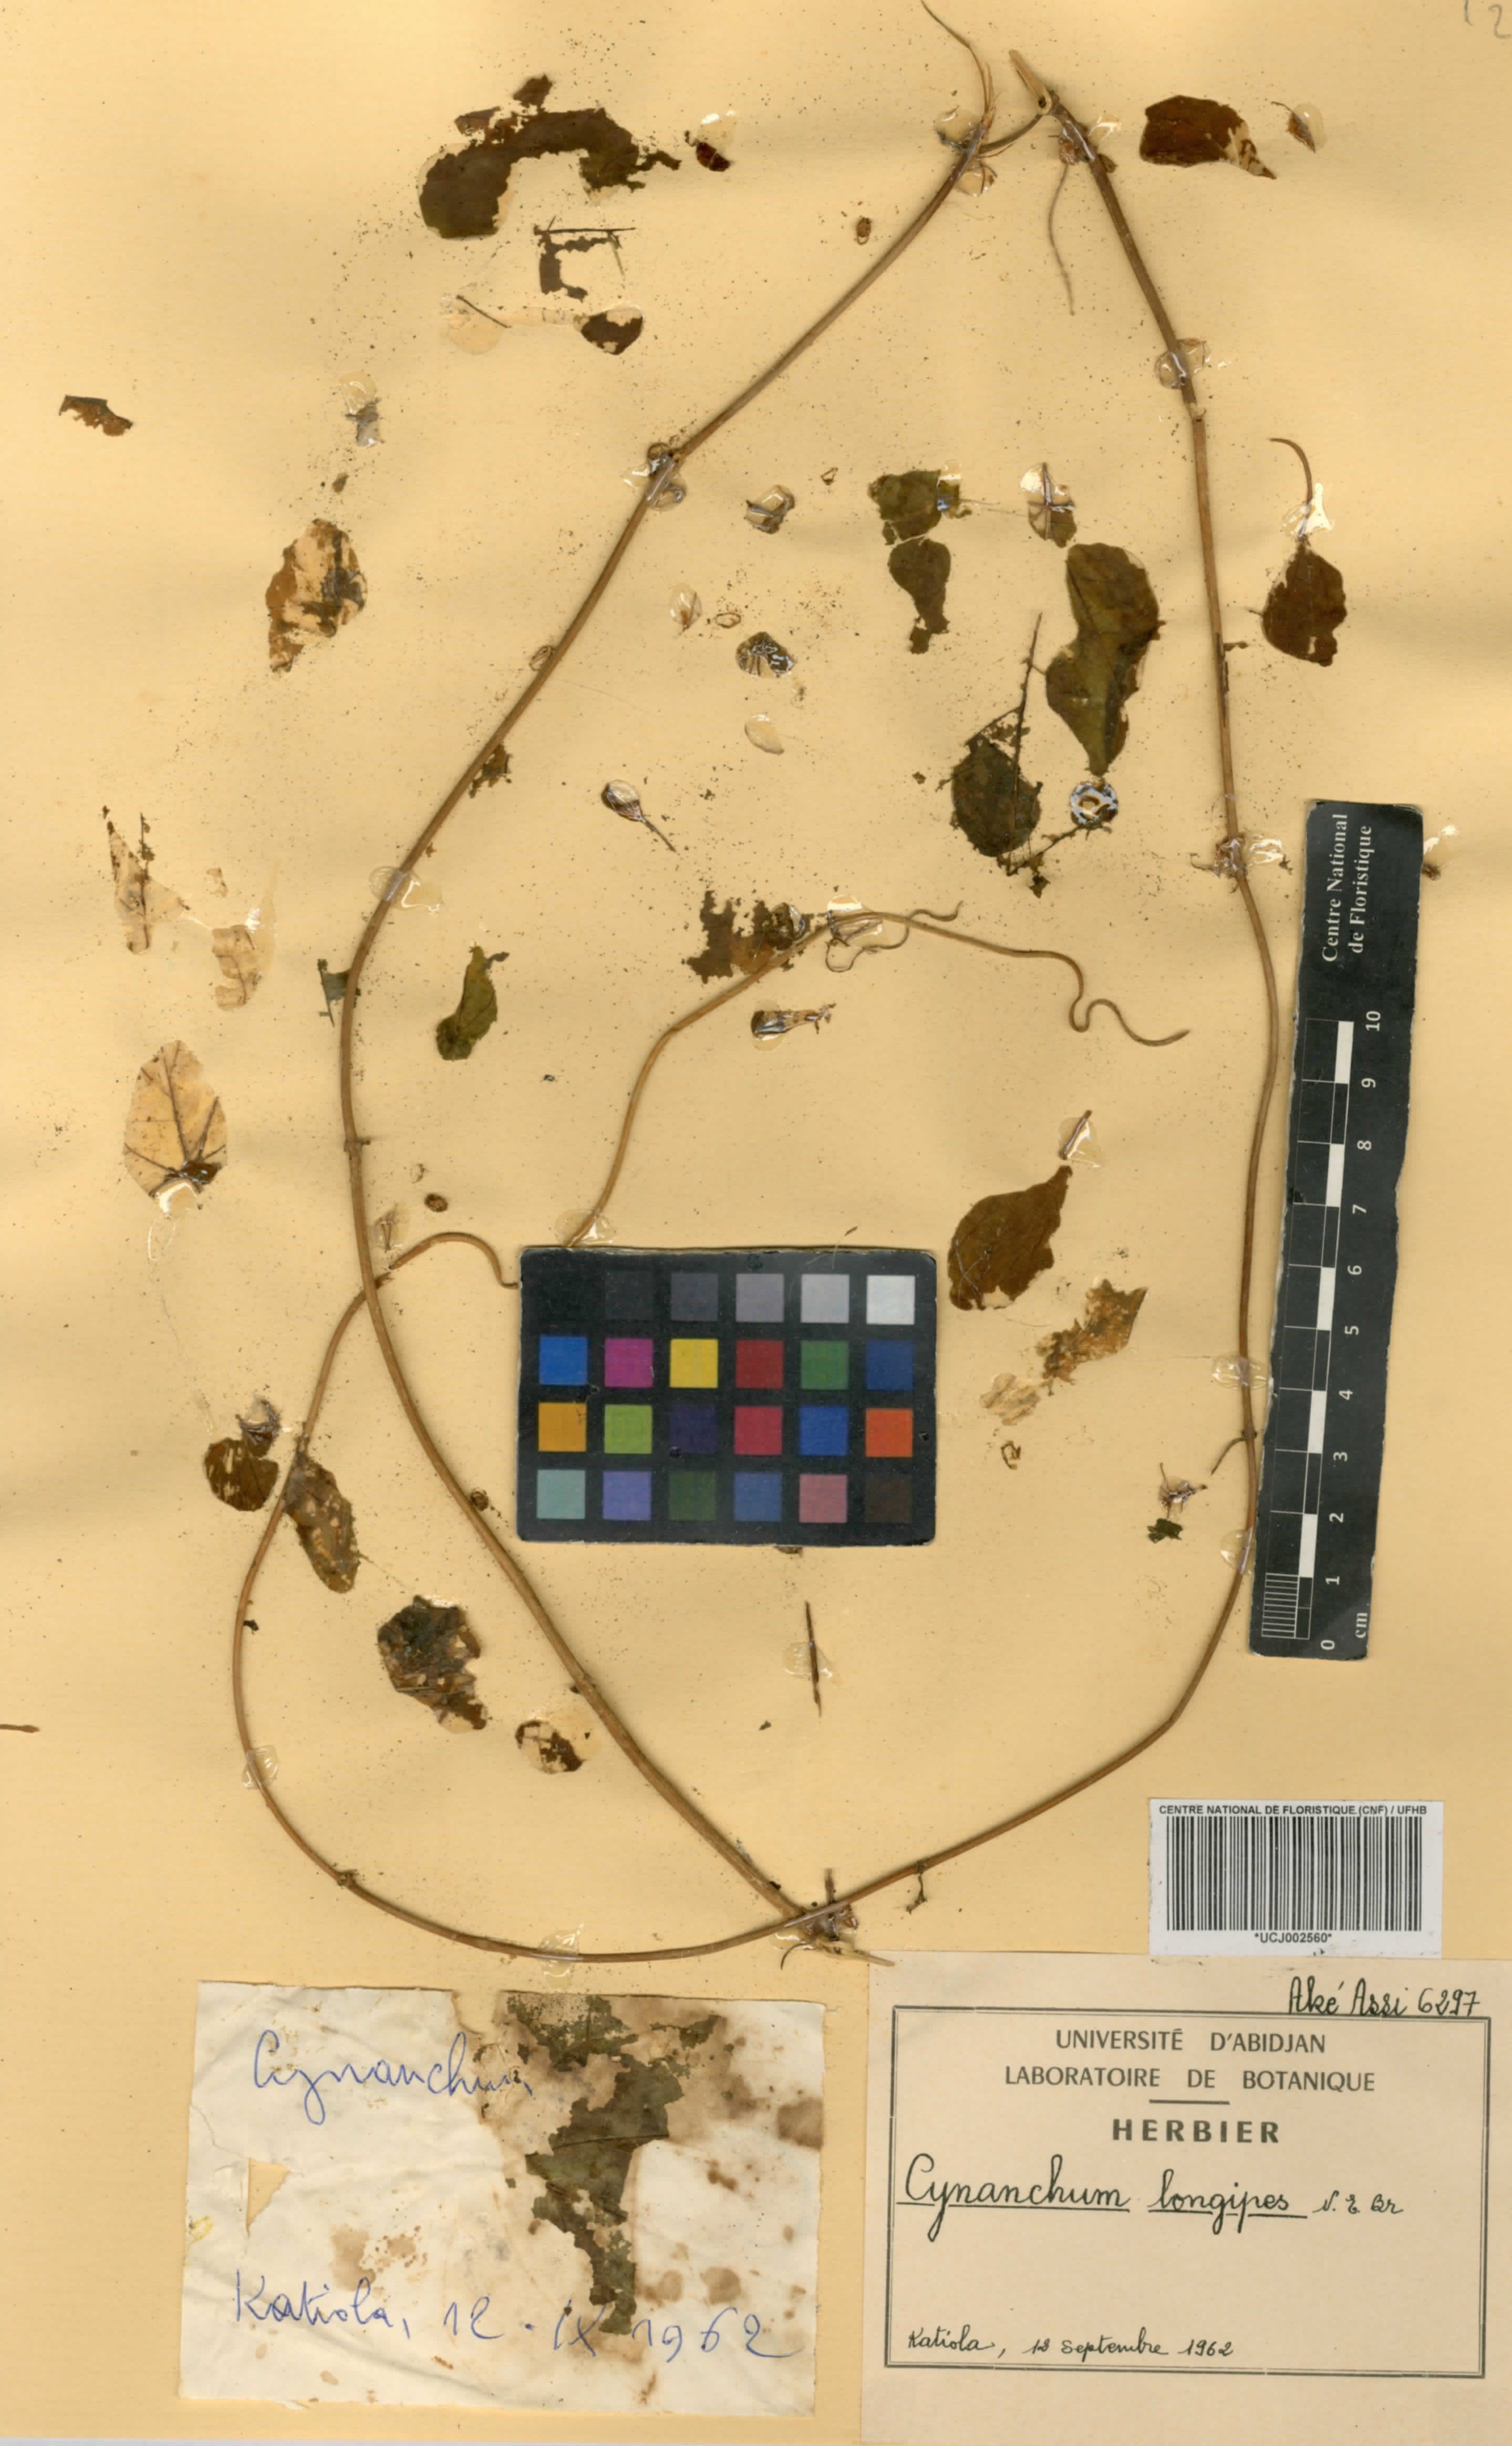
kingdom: Plantae
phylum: Tracheophyta
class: Magnoliopsida
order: Gentianales
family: Apocynaceae
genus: Cynanchum
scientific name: Cynanchum longipes
